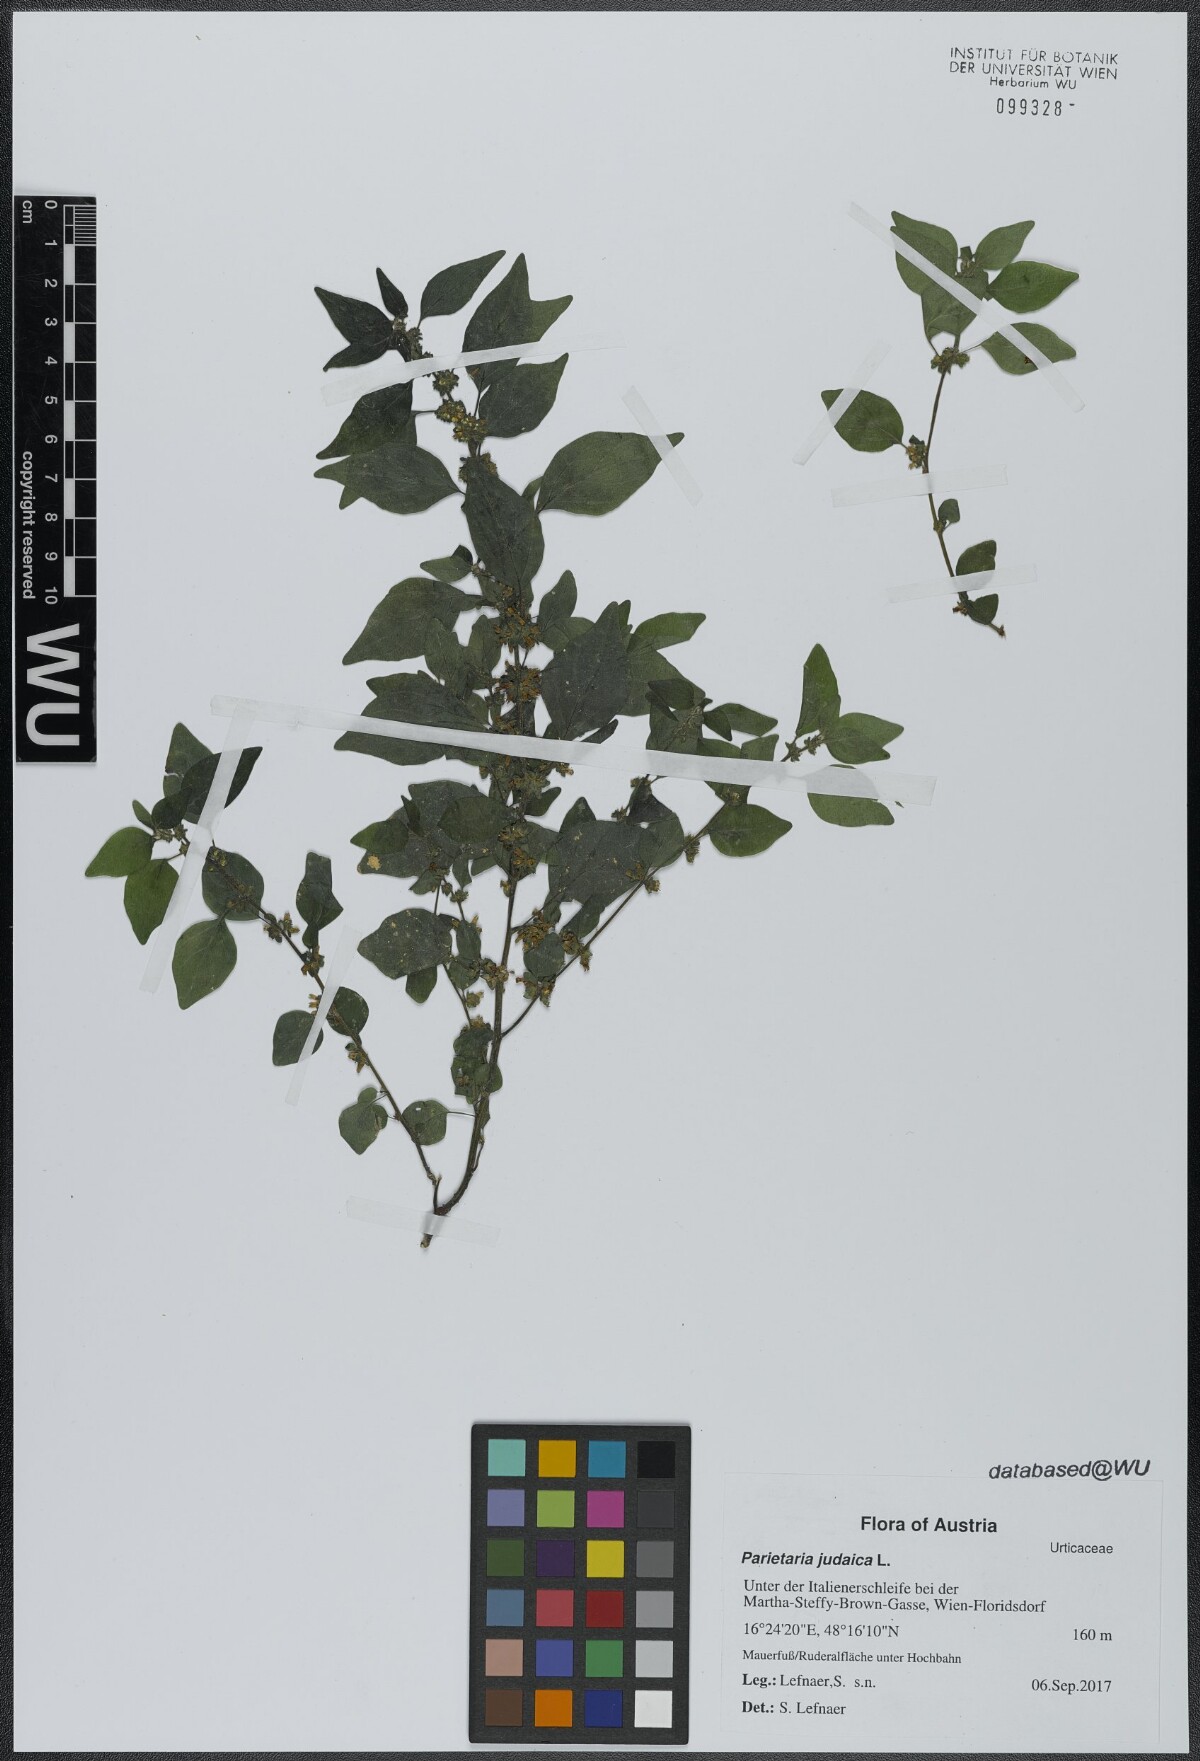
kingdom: Plantae
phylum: Tracheophyta
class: Magnoliopsida
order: Rosales
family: Urticaceae
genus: Parietaria
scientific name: Parietaria judaica
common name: Pellitory-of-the-wall
